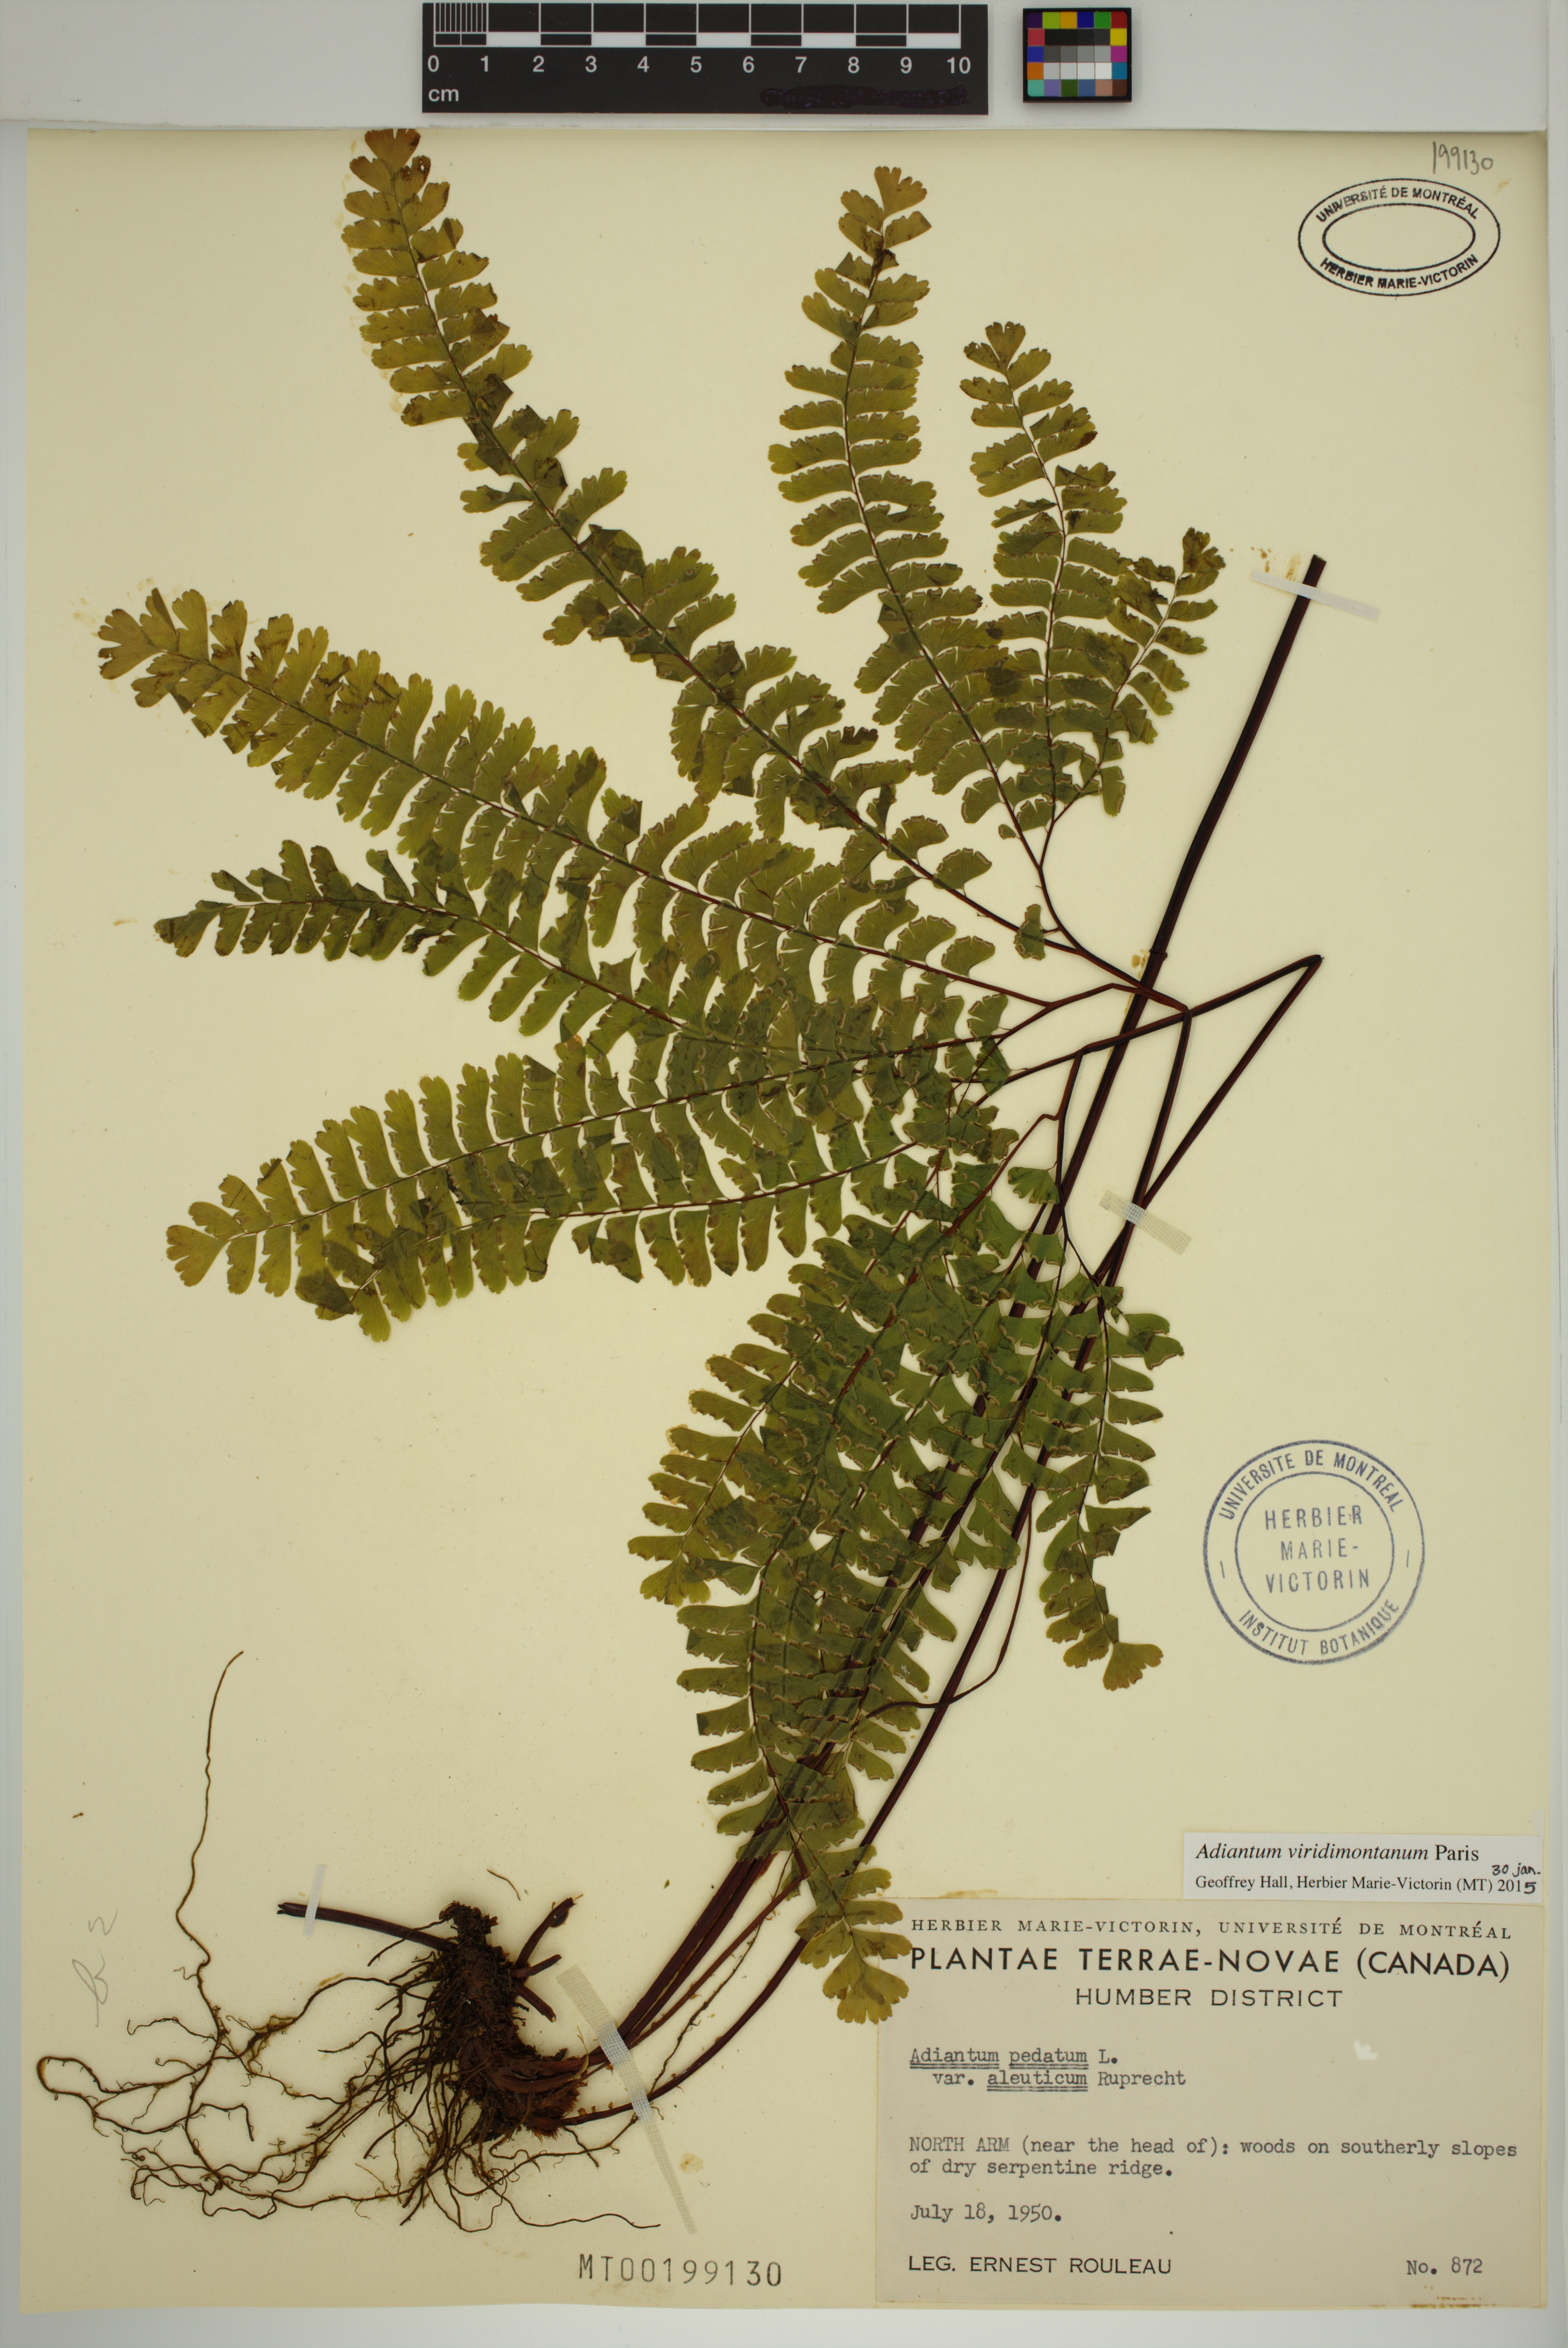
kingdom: Plantae
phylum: Tracheophyta
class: Polypodiopsida
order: Polypodiales
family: Pteridaceae
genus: Adiantum
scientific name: Adiantum viridimontanum
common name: Green mountain maidenhair
